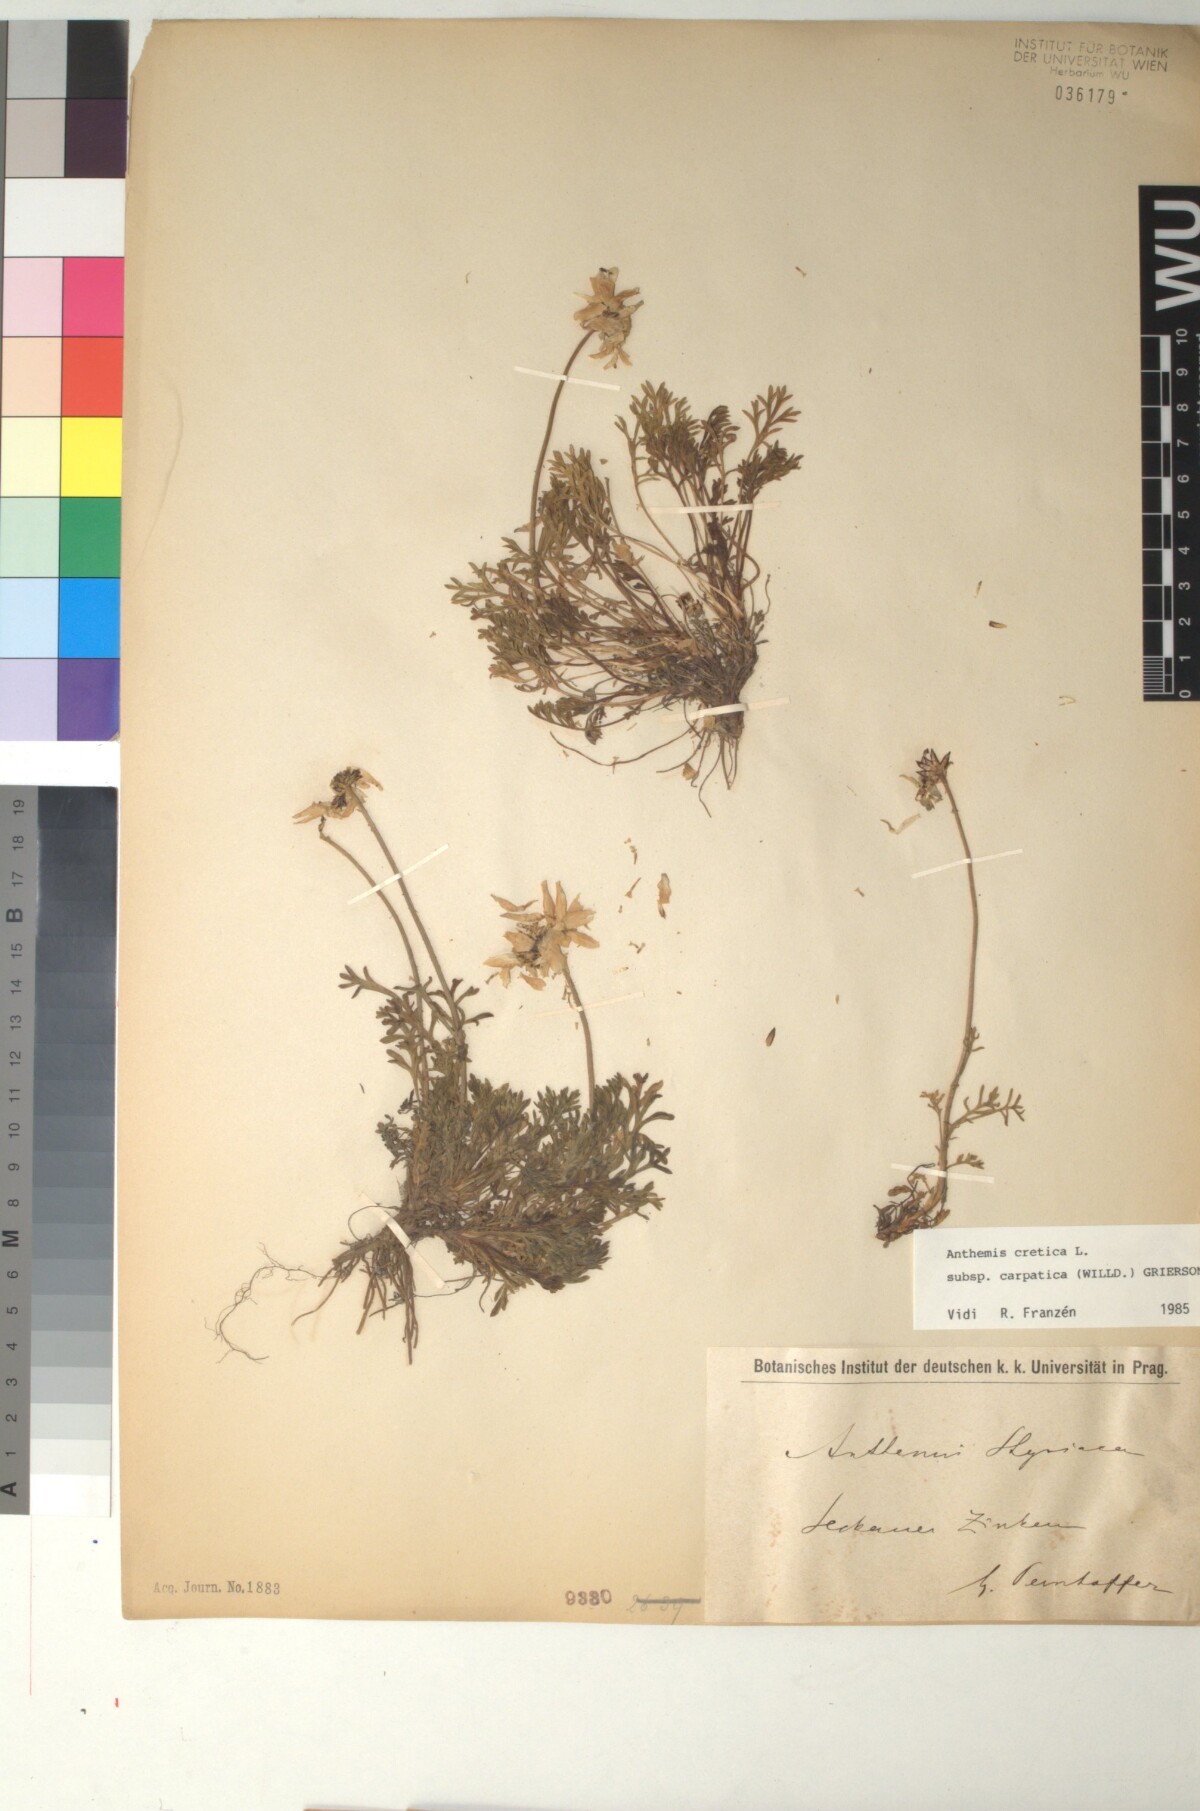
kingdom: Plantae
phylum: Tracheophyta
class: Magnoliopsida
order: Asterales
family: Asteraceae
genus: Anthemis
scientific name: Anthemis cretica
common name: Mountain dog-daisy
